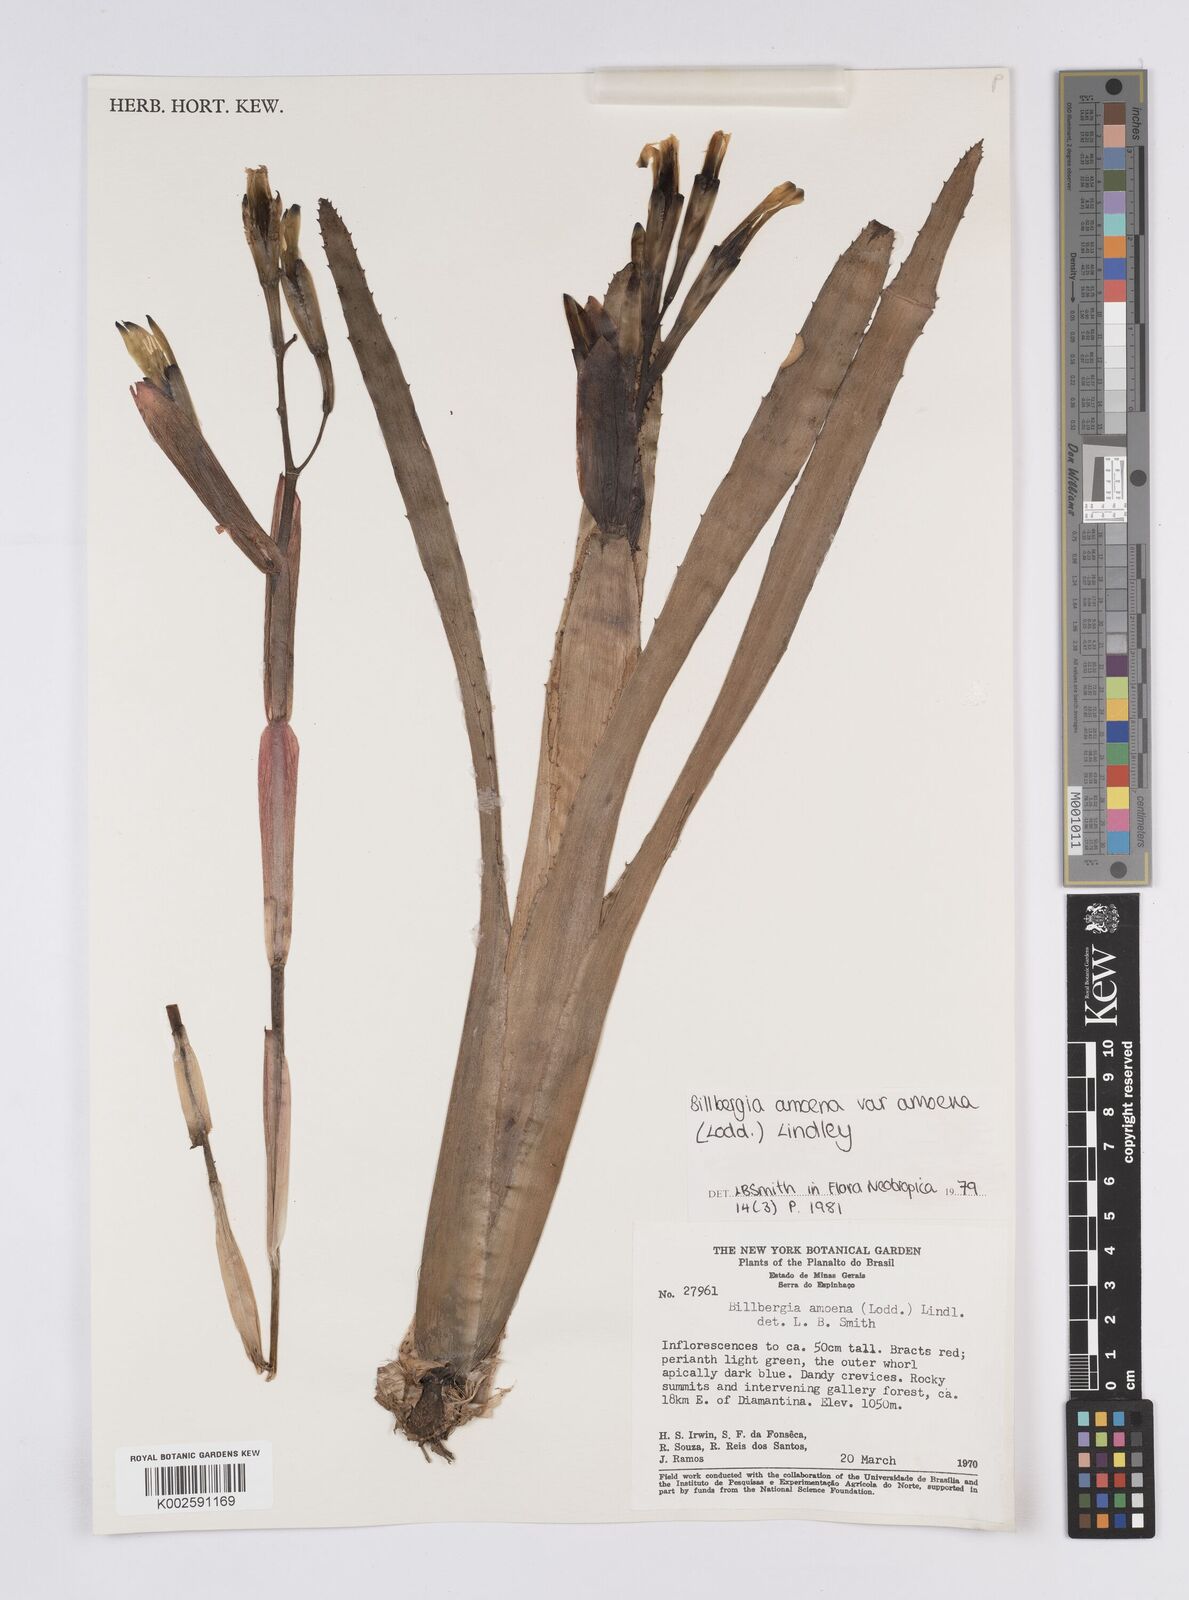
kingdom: Plantae
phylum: Tracheophyta
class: Liliopsida
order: Poales
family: Bromeliaceae
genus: Billbergia
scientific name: Billbergia amoena
